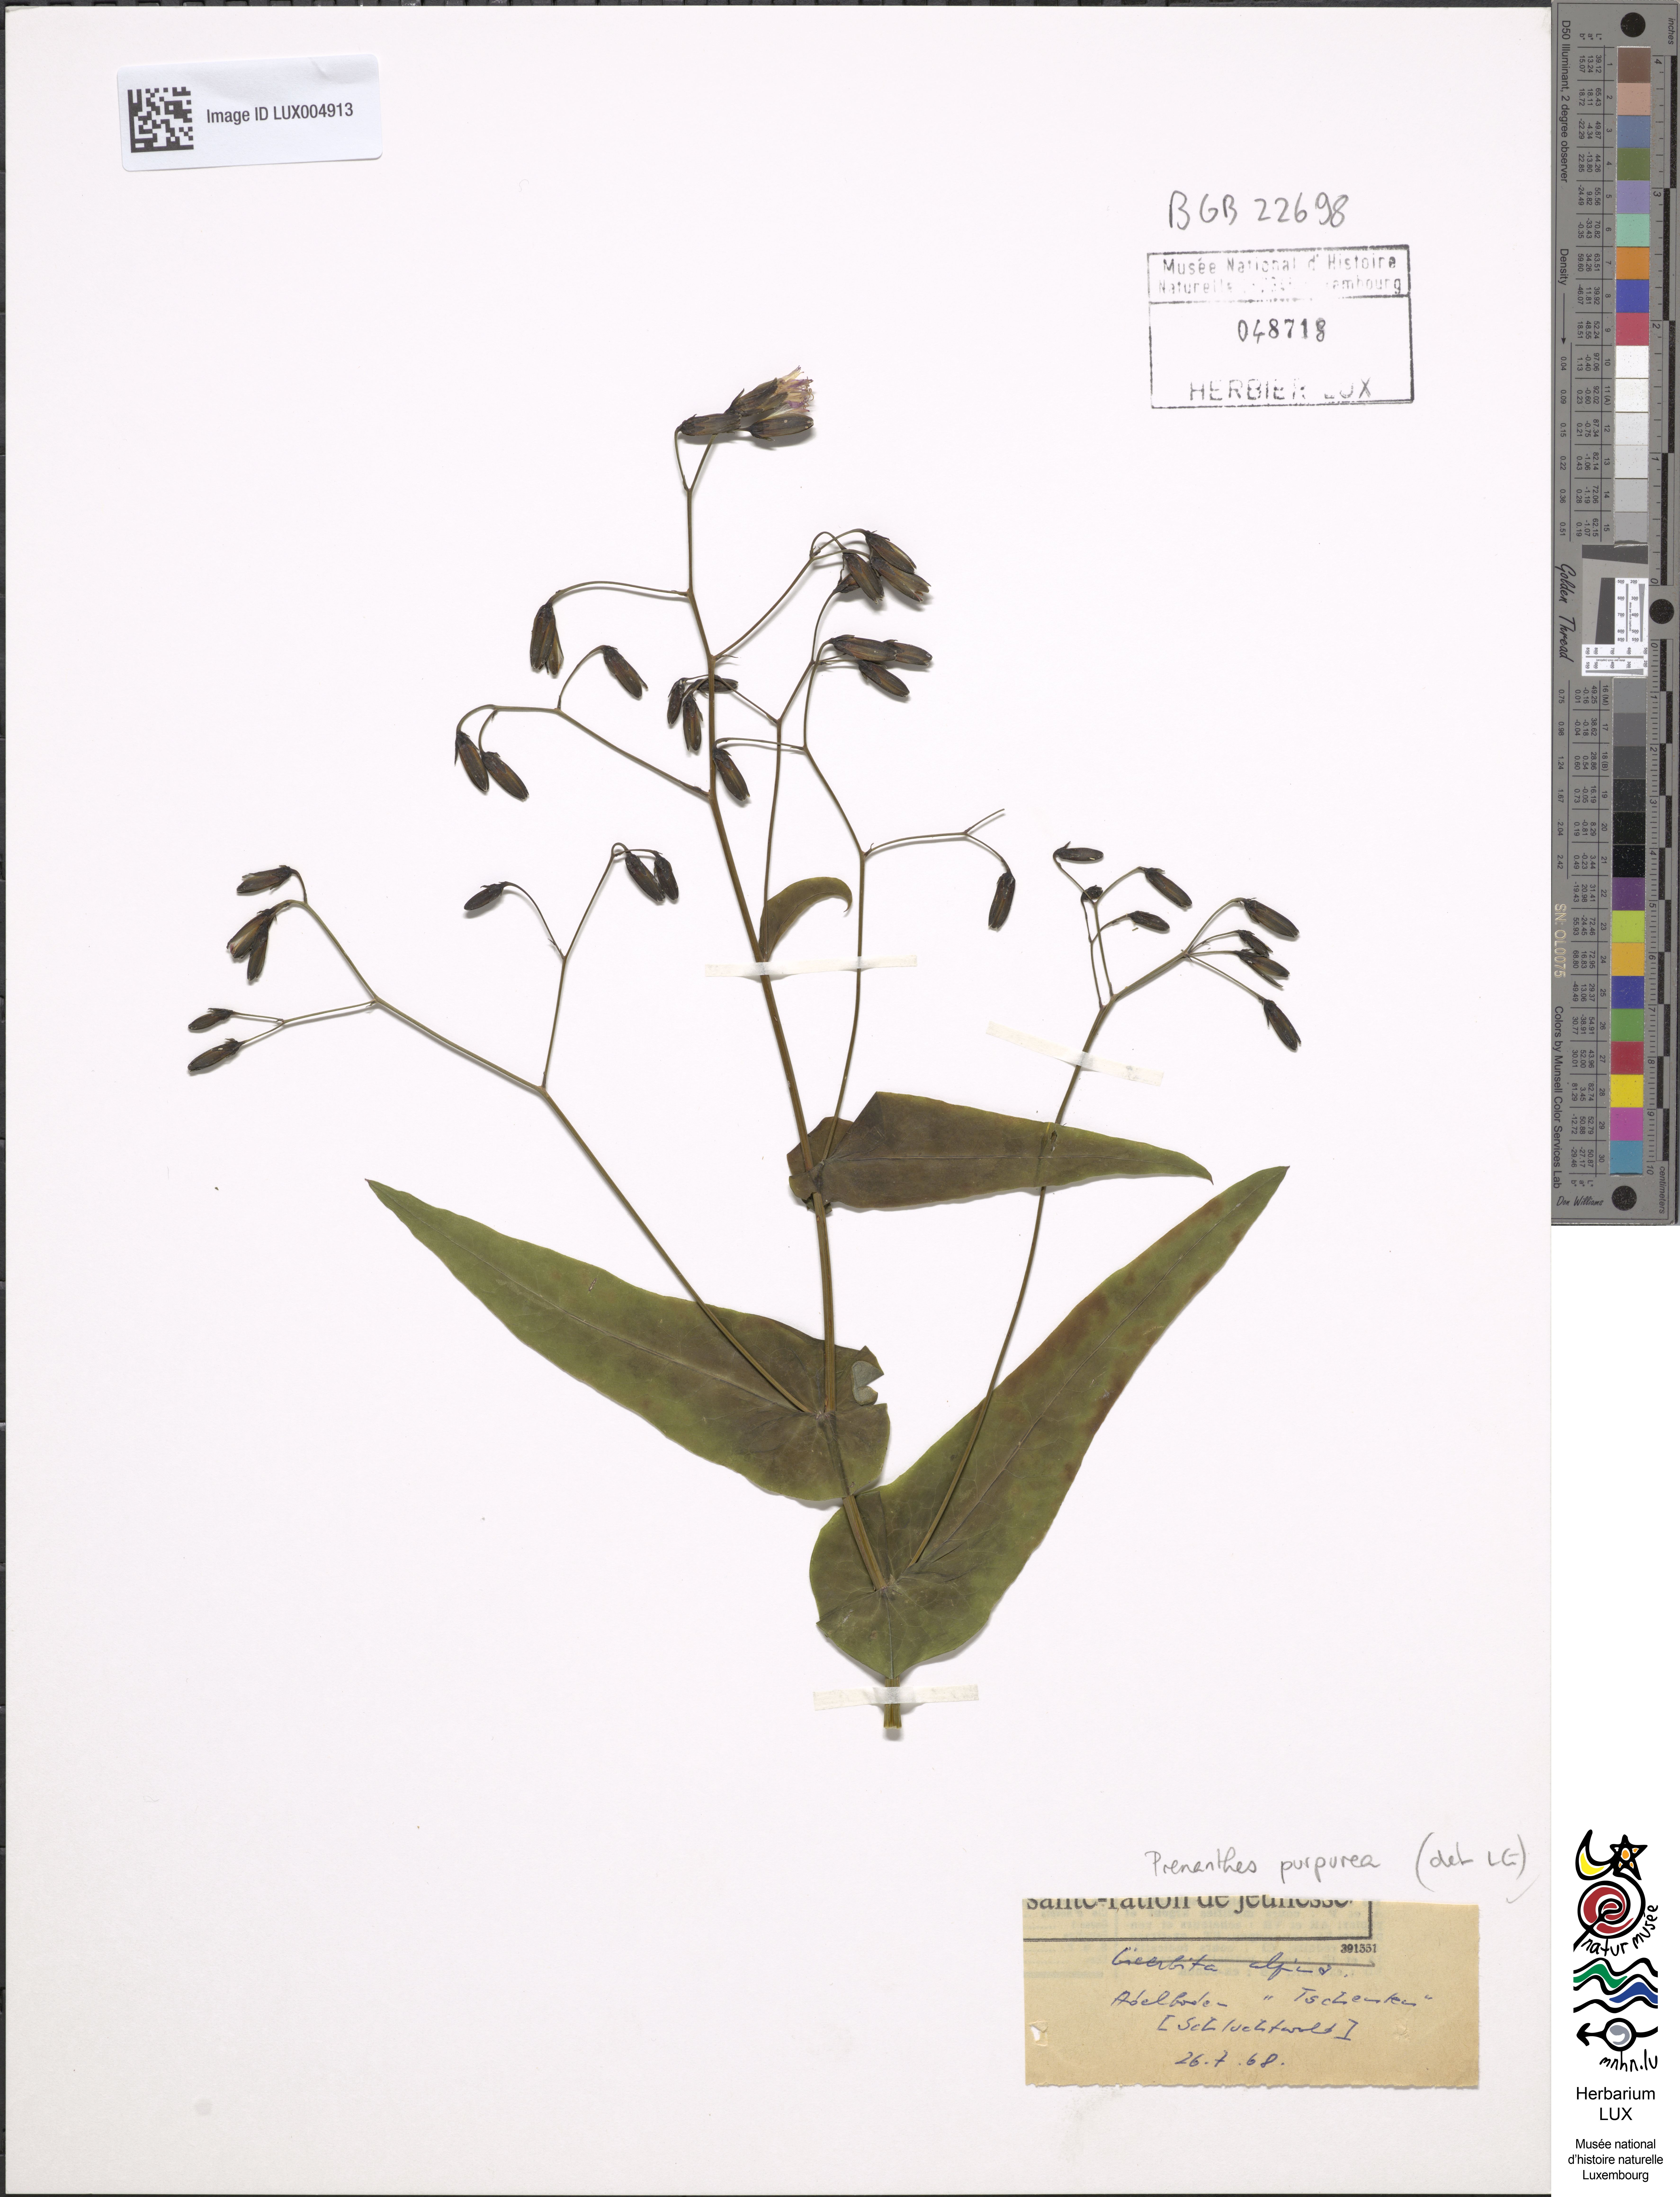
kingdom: Plantae
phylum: Tracheophyta
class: Magnoliopsida
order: Asterales
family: Asteraceae
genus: Prenanthes
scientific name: Prenanthes purpurea
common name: Purple lettuce
